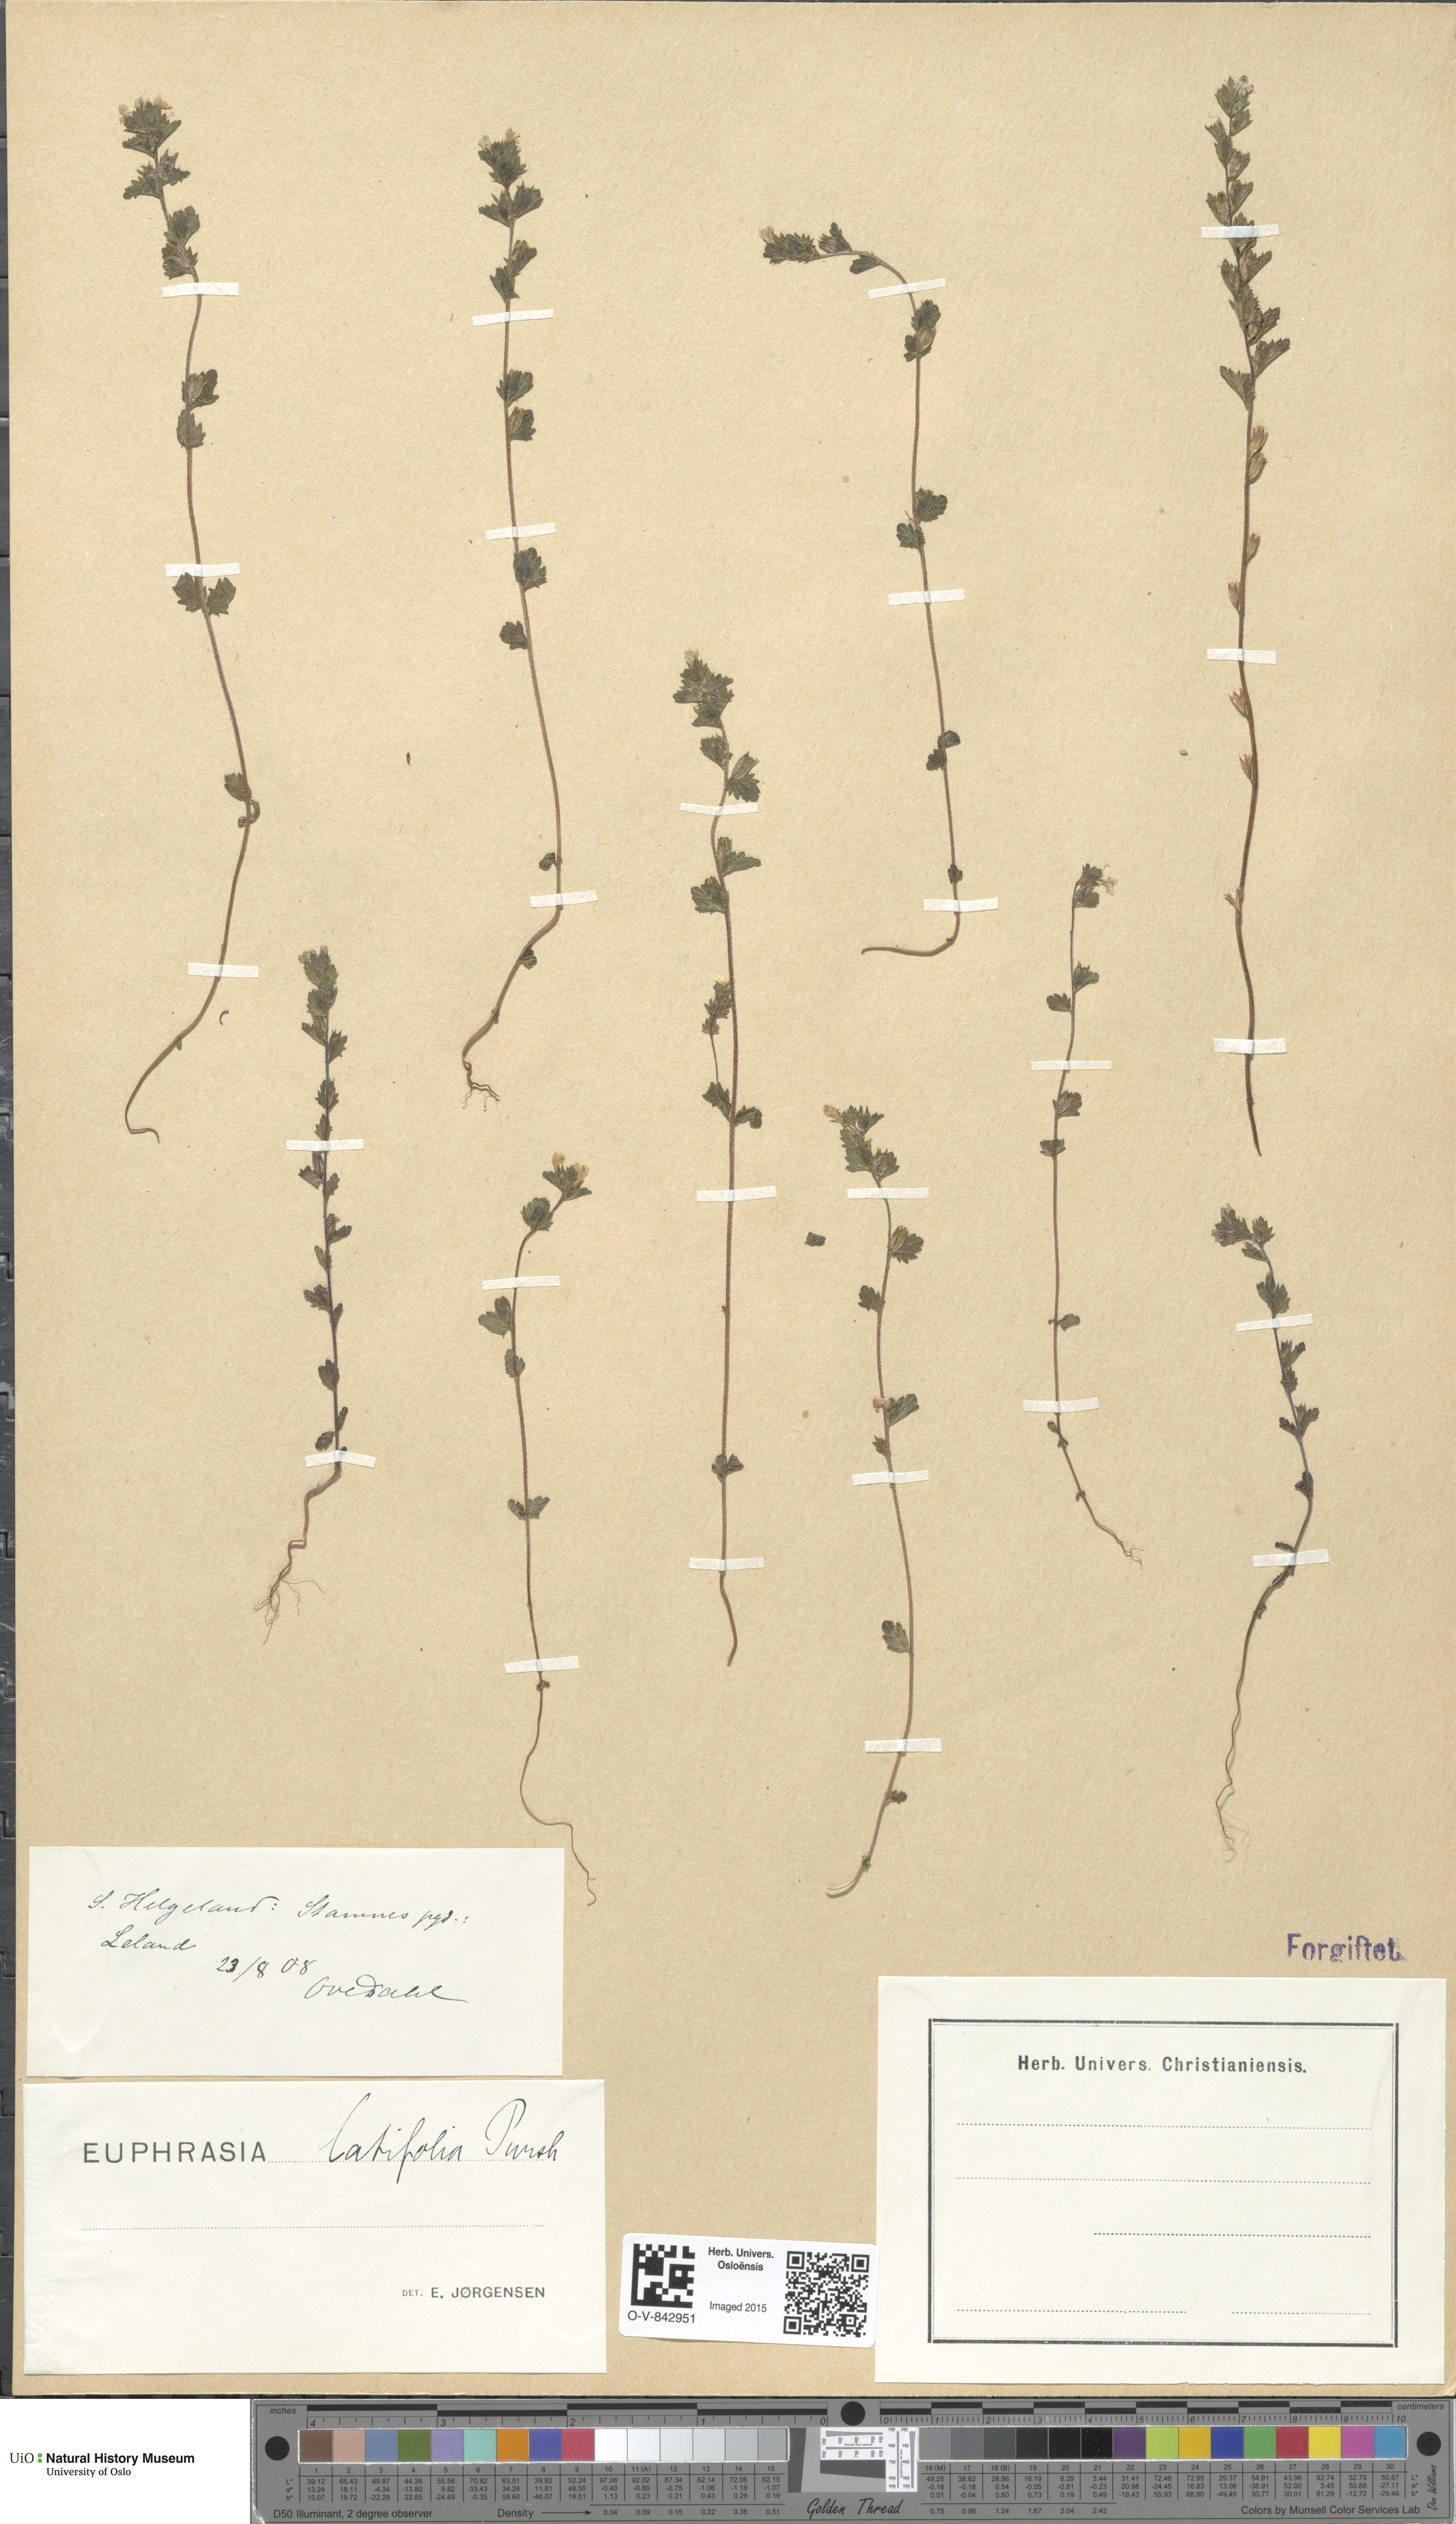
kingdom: Plantae
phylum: Tracheophyta
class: Magnoliopsida
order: Lamiales
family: Orobanchaceae
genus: Euphrasia
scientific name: Euphrasia wettsteinii
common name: Wettstein's eyebright
